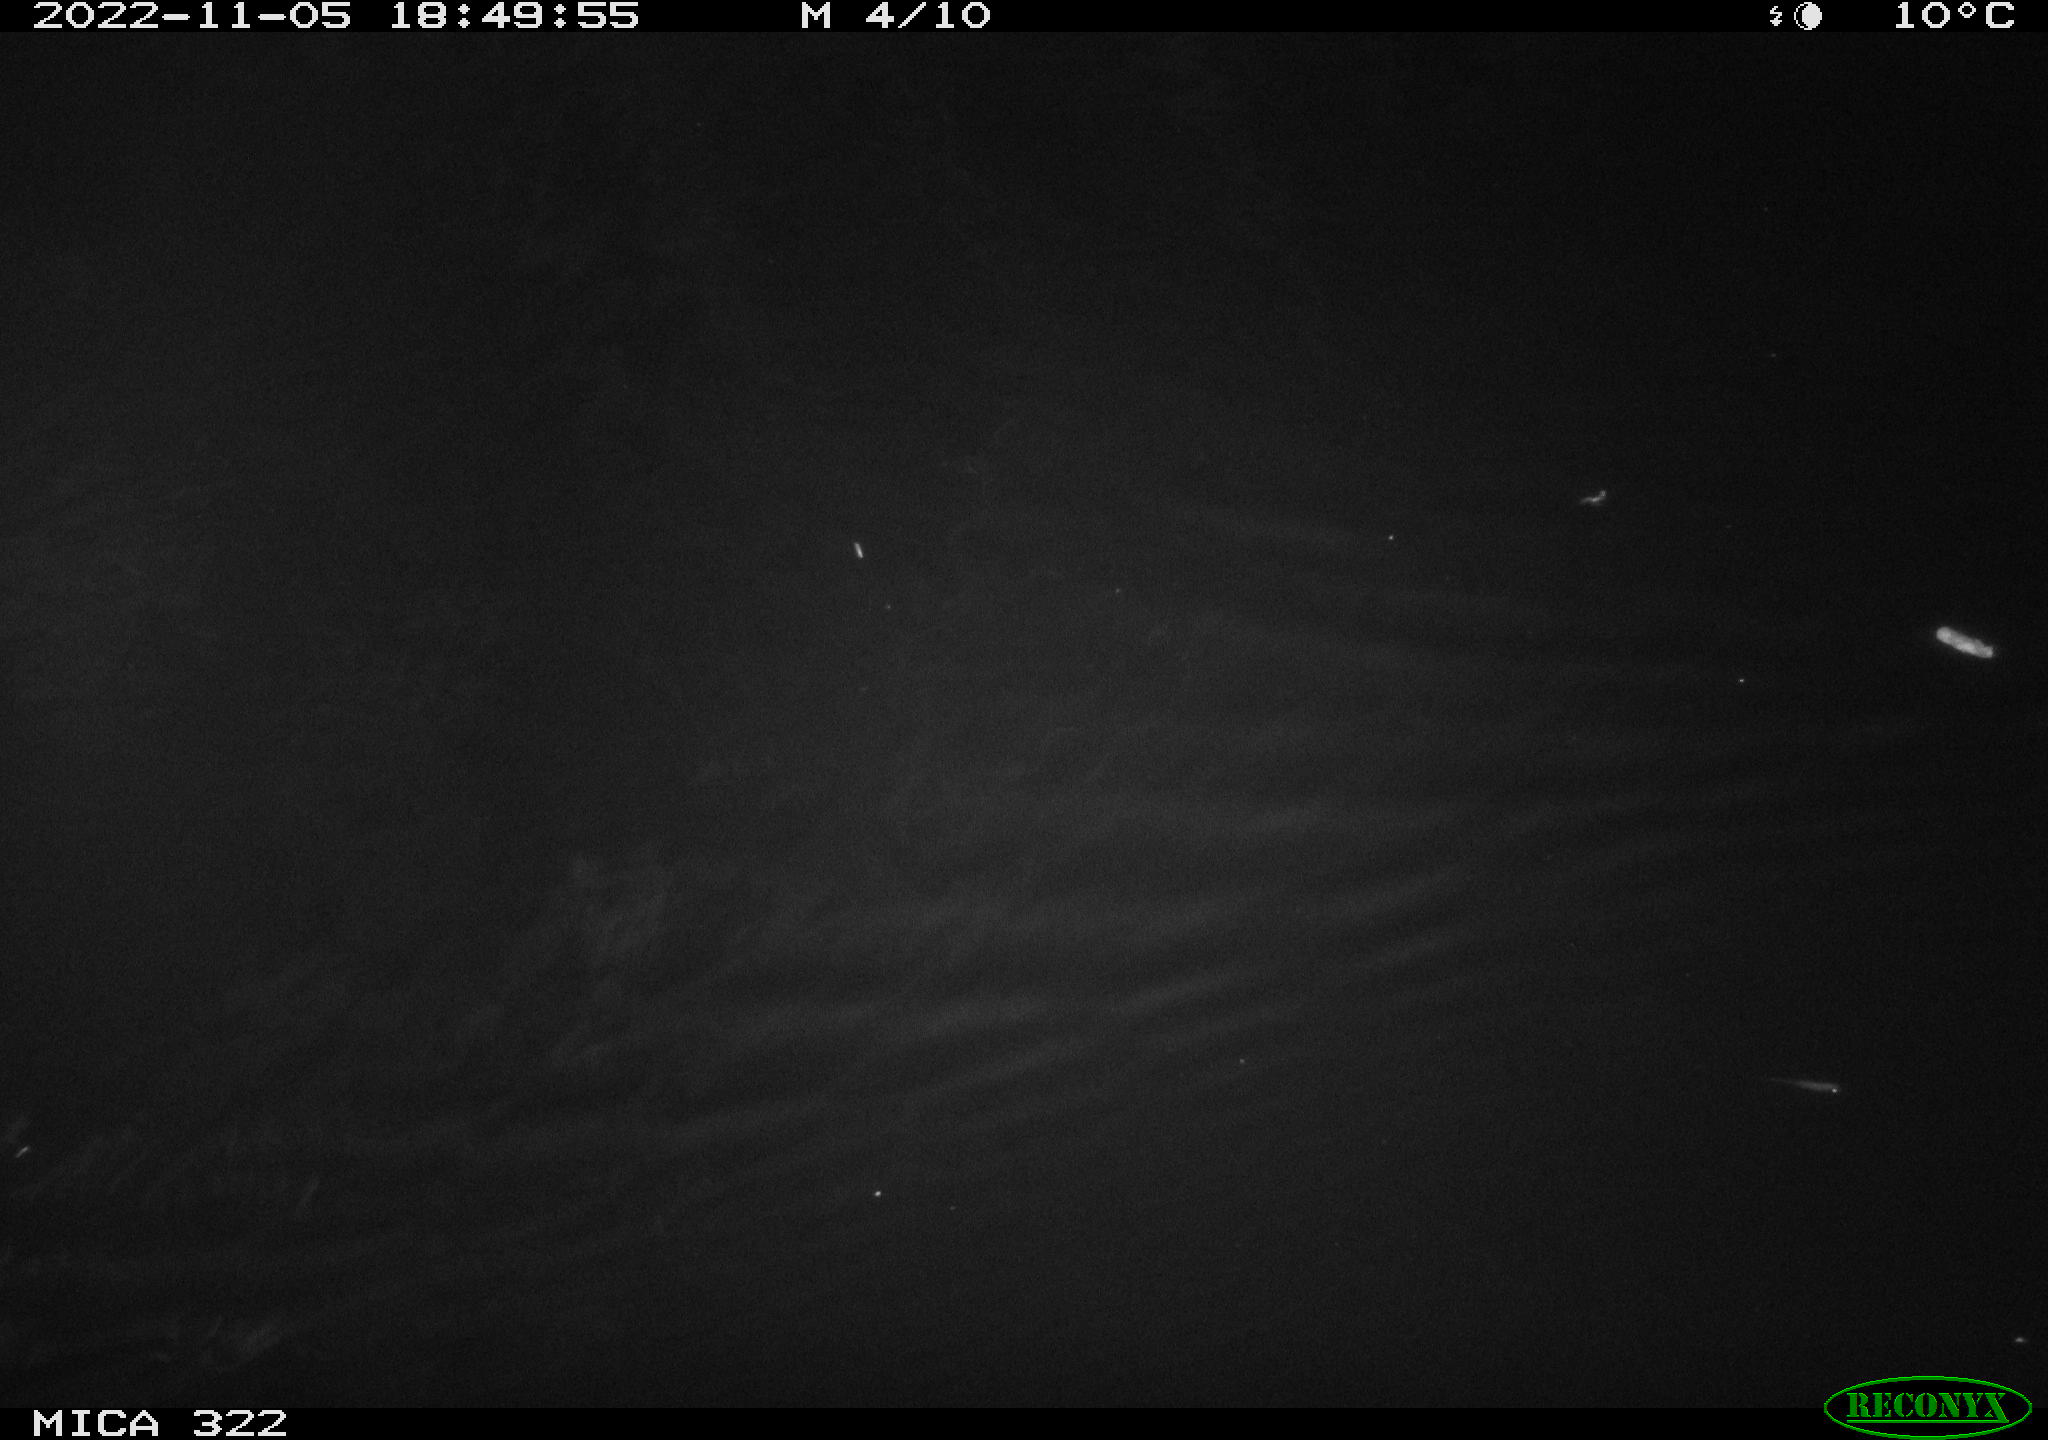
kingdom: Animalia
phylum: Chordata
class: Mammalia
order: Rodentia
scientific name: Rodentia
